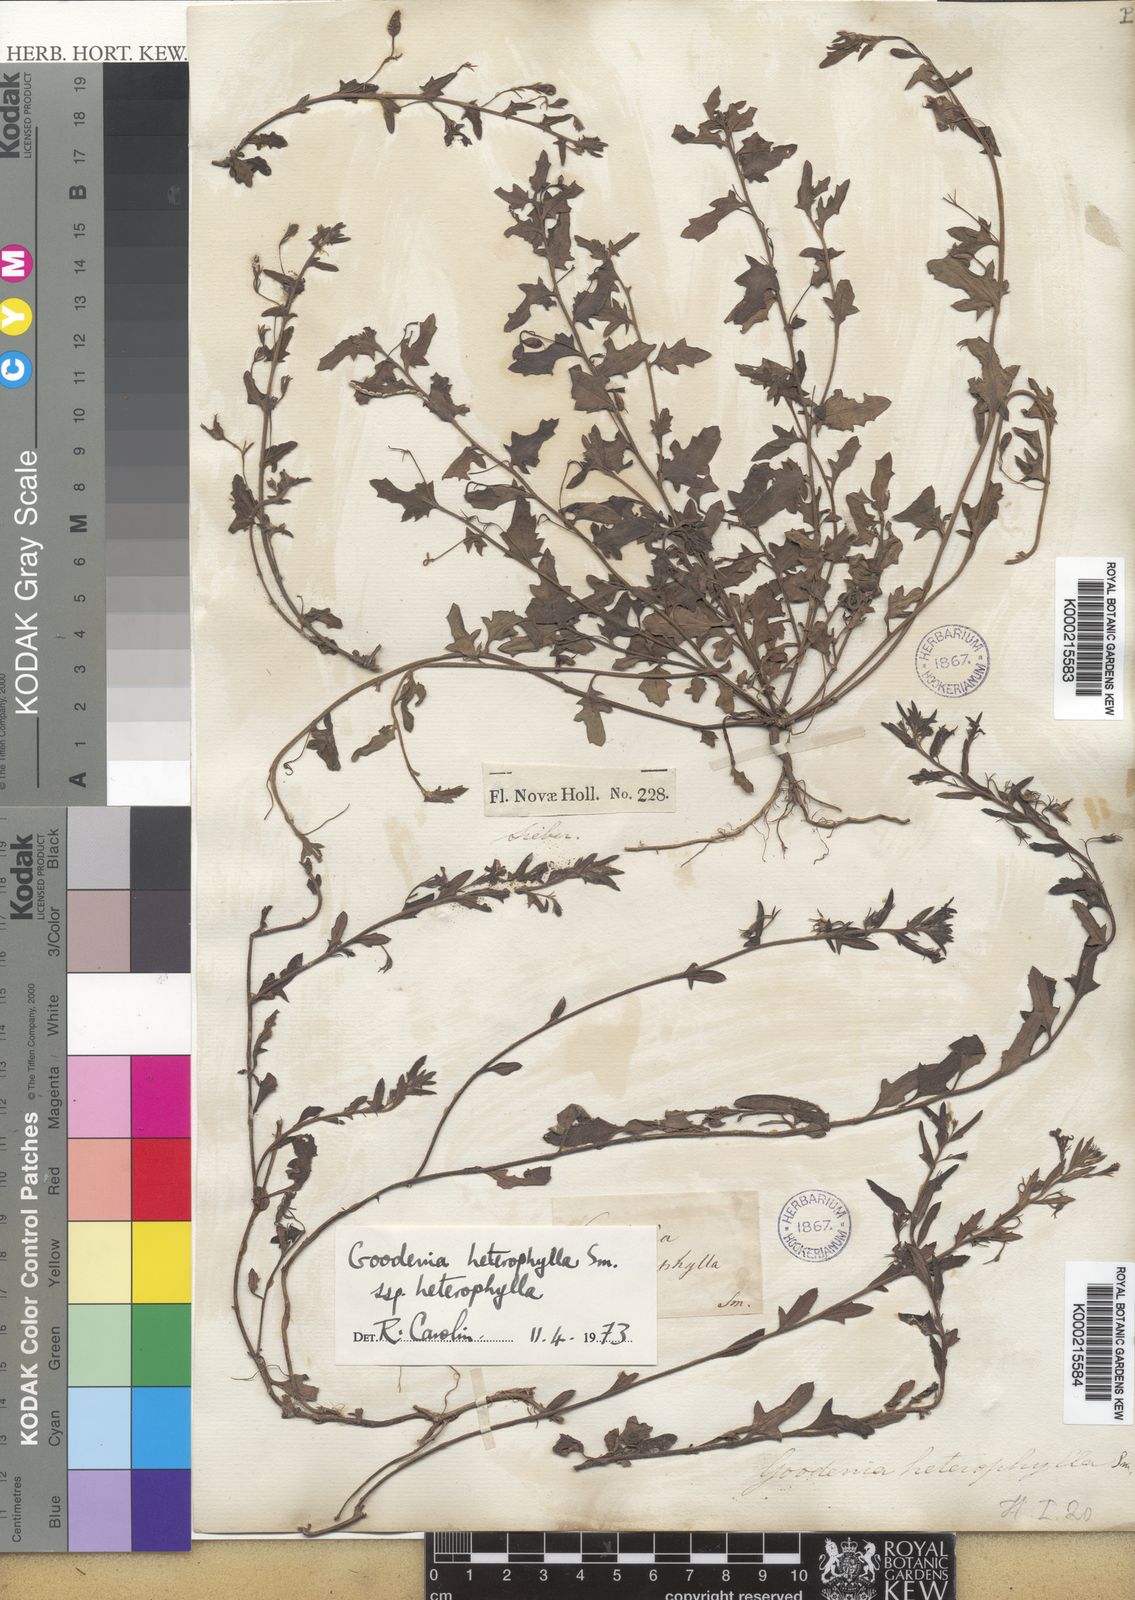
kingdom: Plantae
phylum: Tracheophyta
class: Magnoliopsida
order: Asterales
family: Goodeniaceae
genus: Goodenia
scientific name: Goodenia heterophylla
